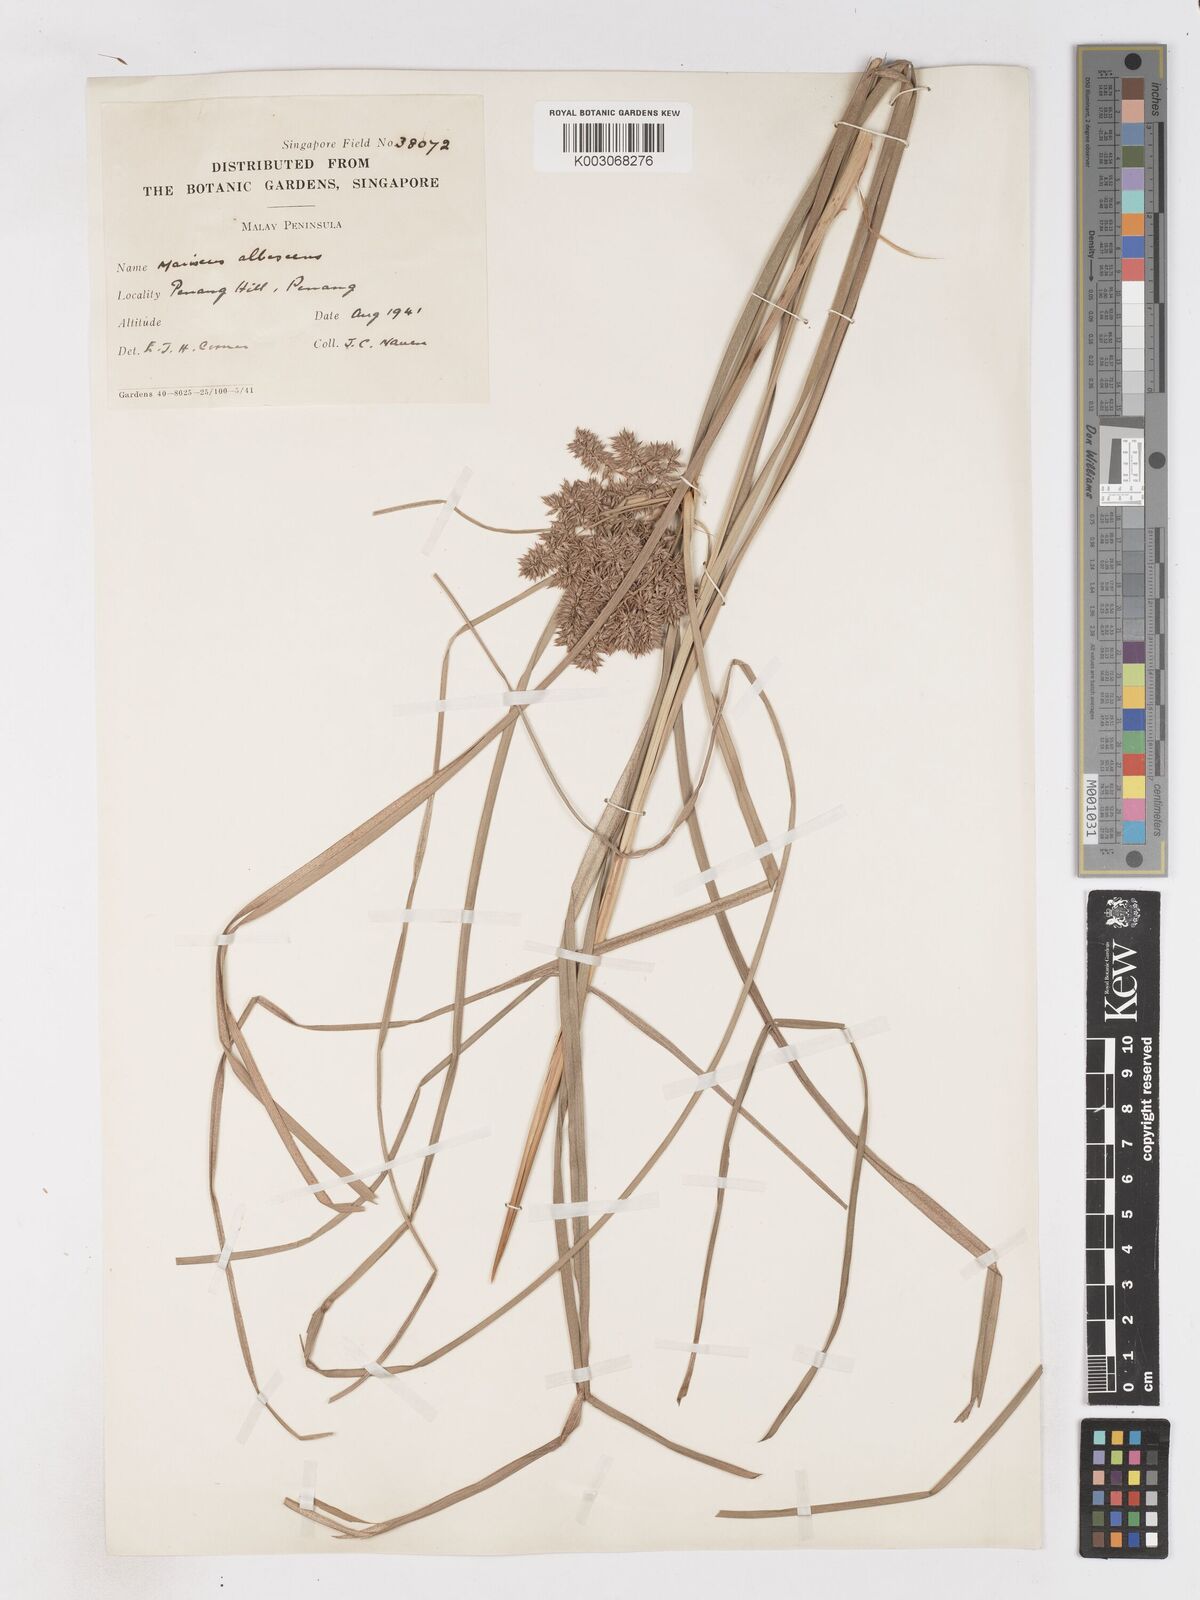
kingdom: Plantae
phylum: Tracheophyta
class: Liliopsida
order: Poales
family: Cyperaceae
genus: Cyperus
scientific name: Cyperus javanicus
